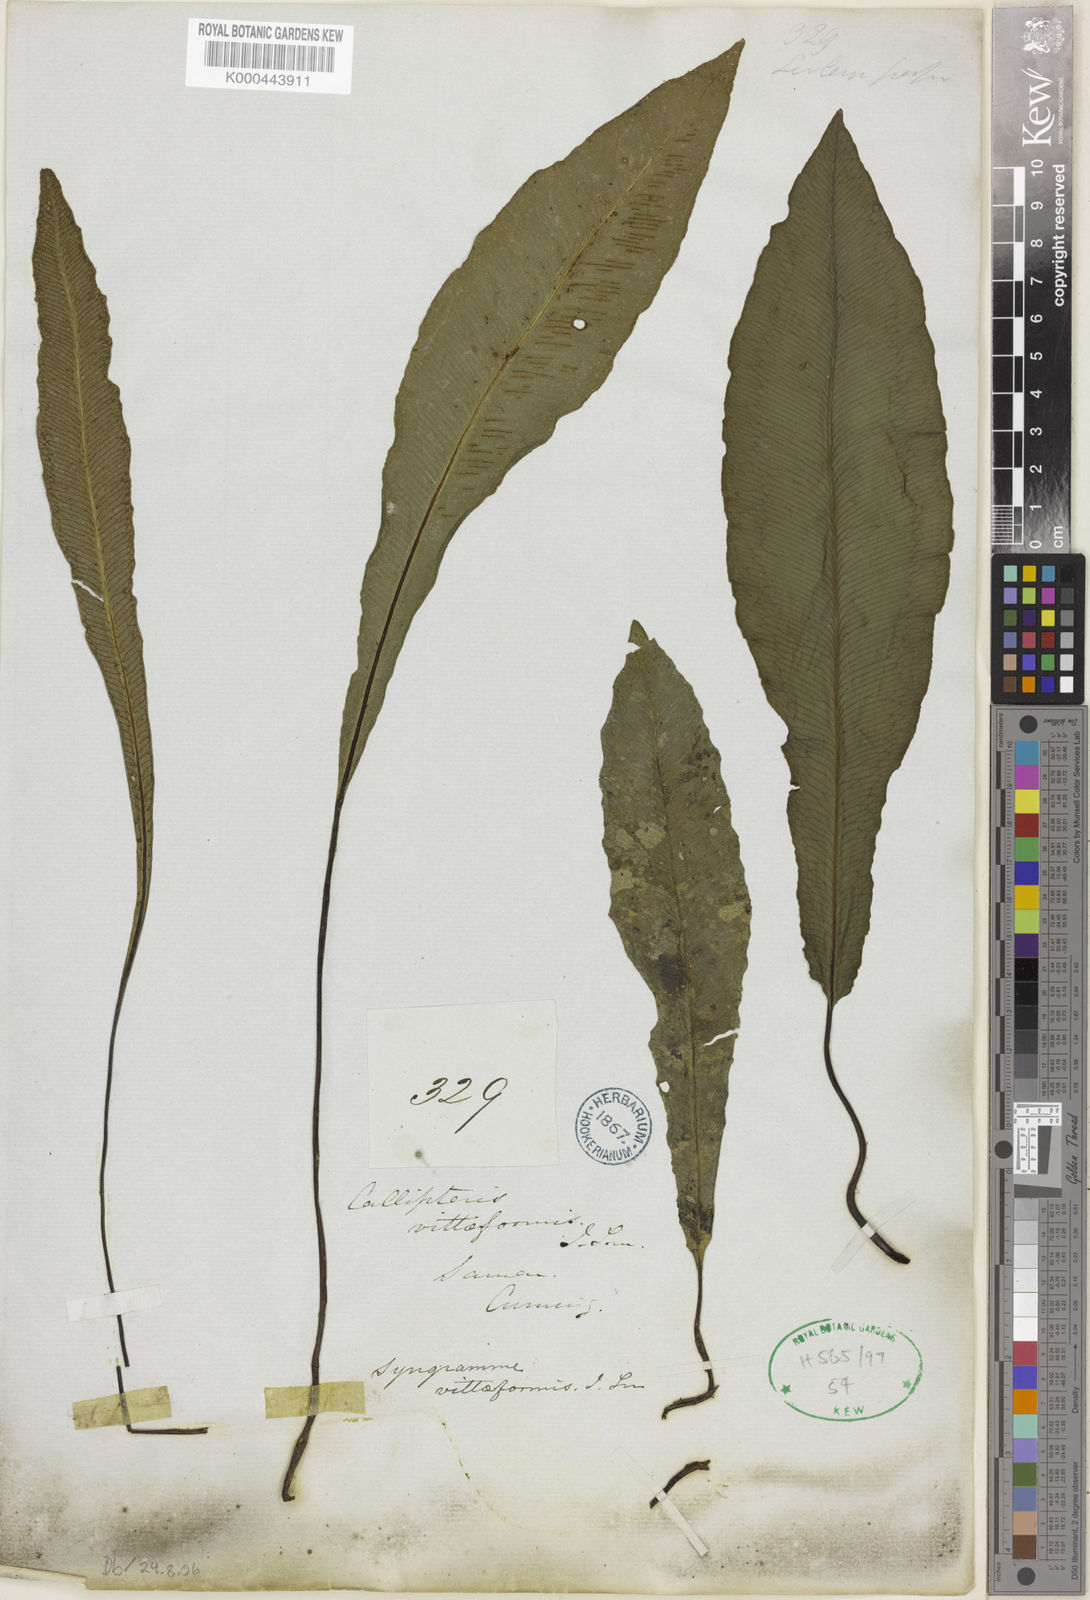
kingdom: Plantae
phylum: Tracheophyta
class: Polypodiopsida
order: Polypodiales
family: Pteridaceae
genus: Syngramma
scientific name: Syngramma vittiformis
